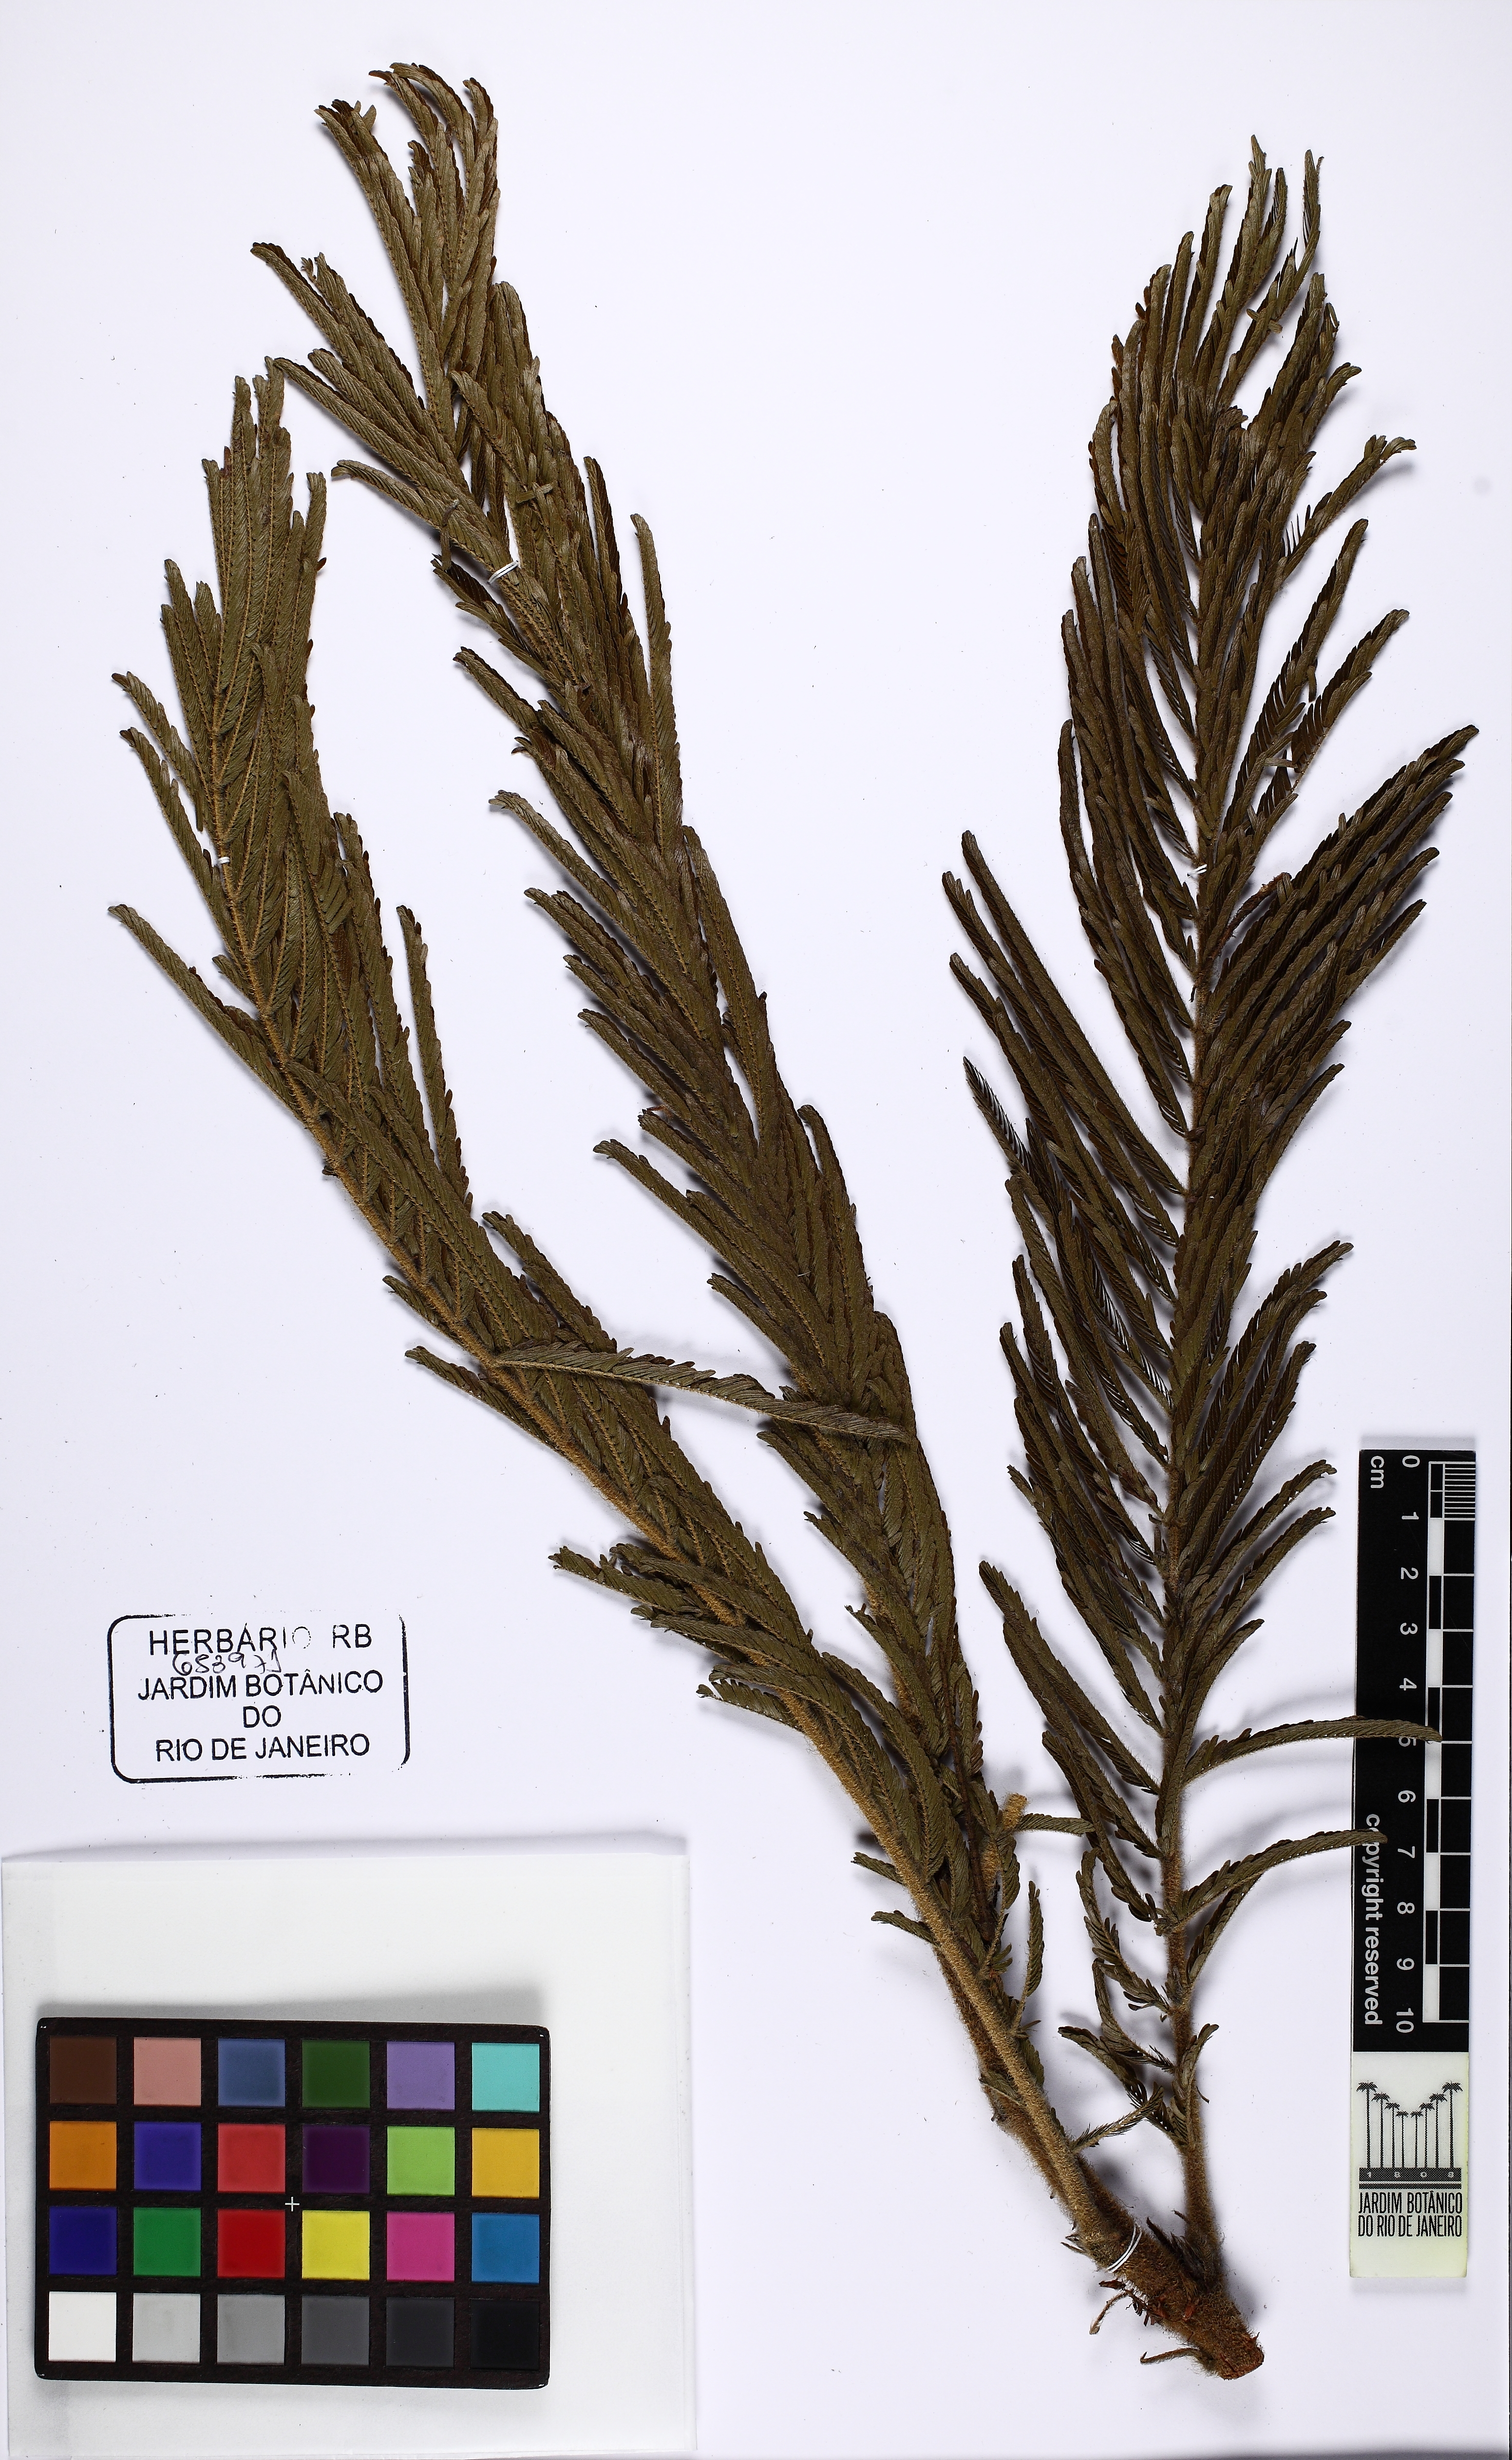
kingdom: Plantae
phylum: Tracheophyta
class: Magnoliopsida
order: Fabales
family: Fabaceae
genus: Mimosa
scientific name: Mimosa albolanata
